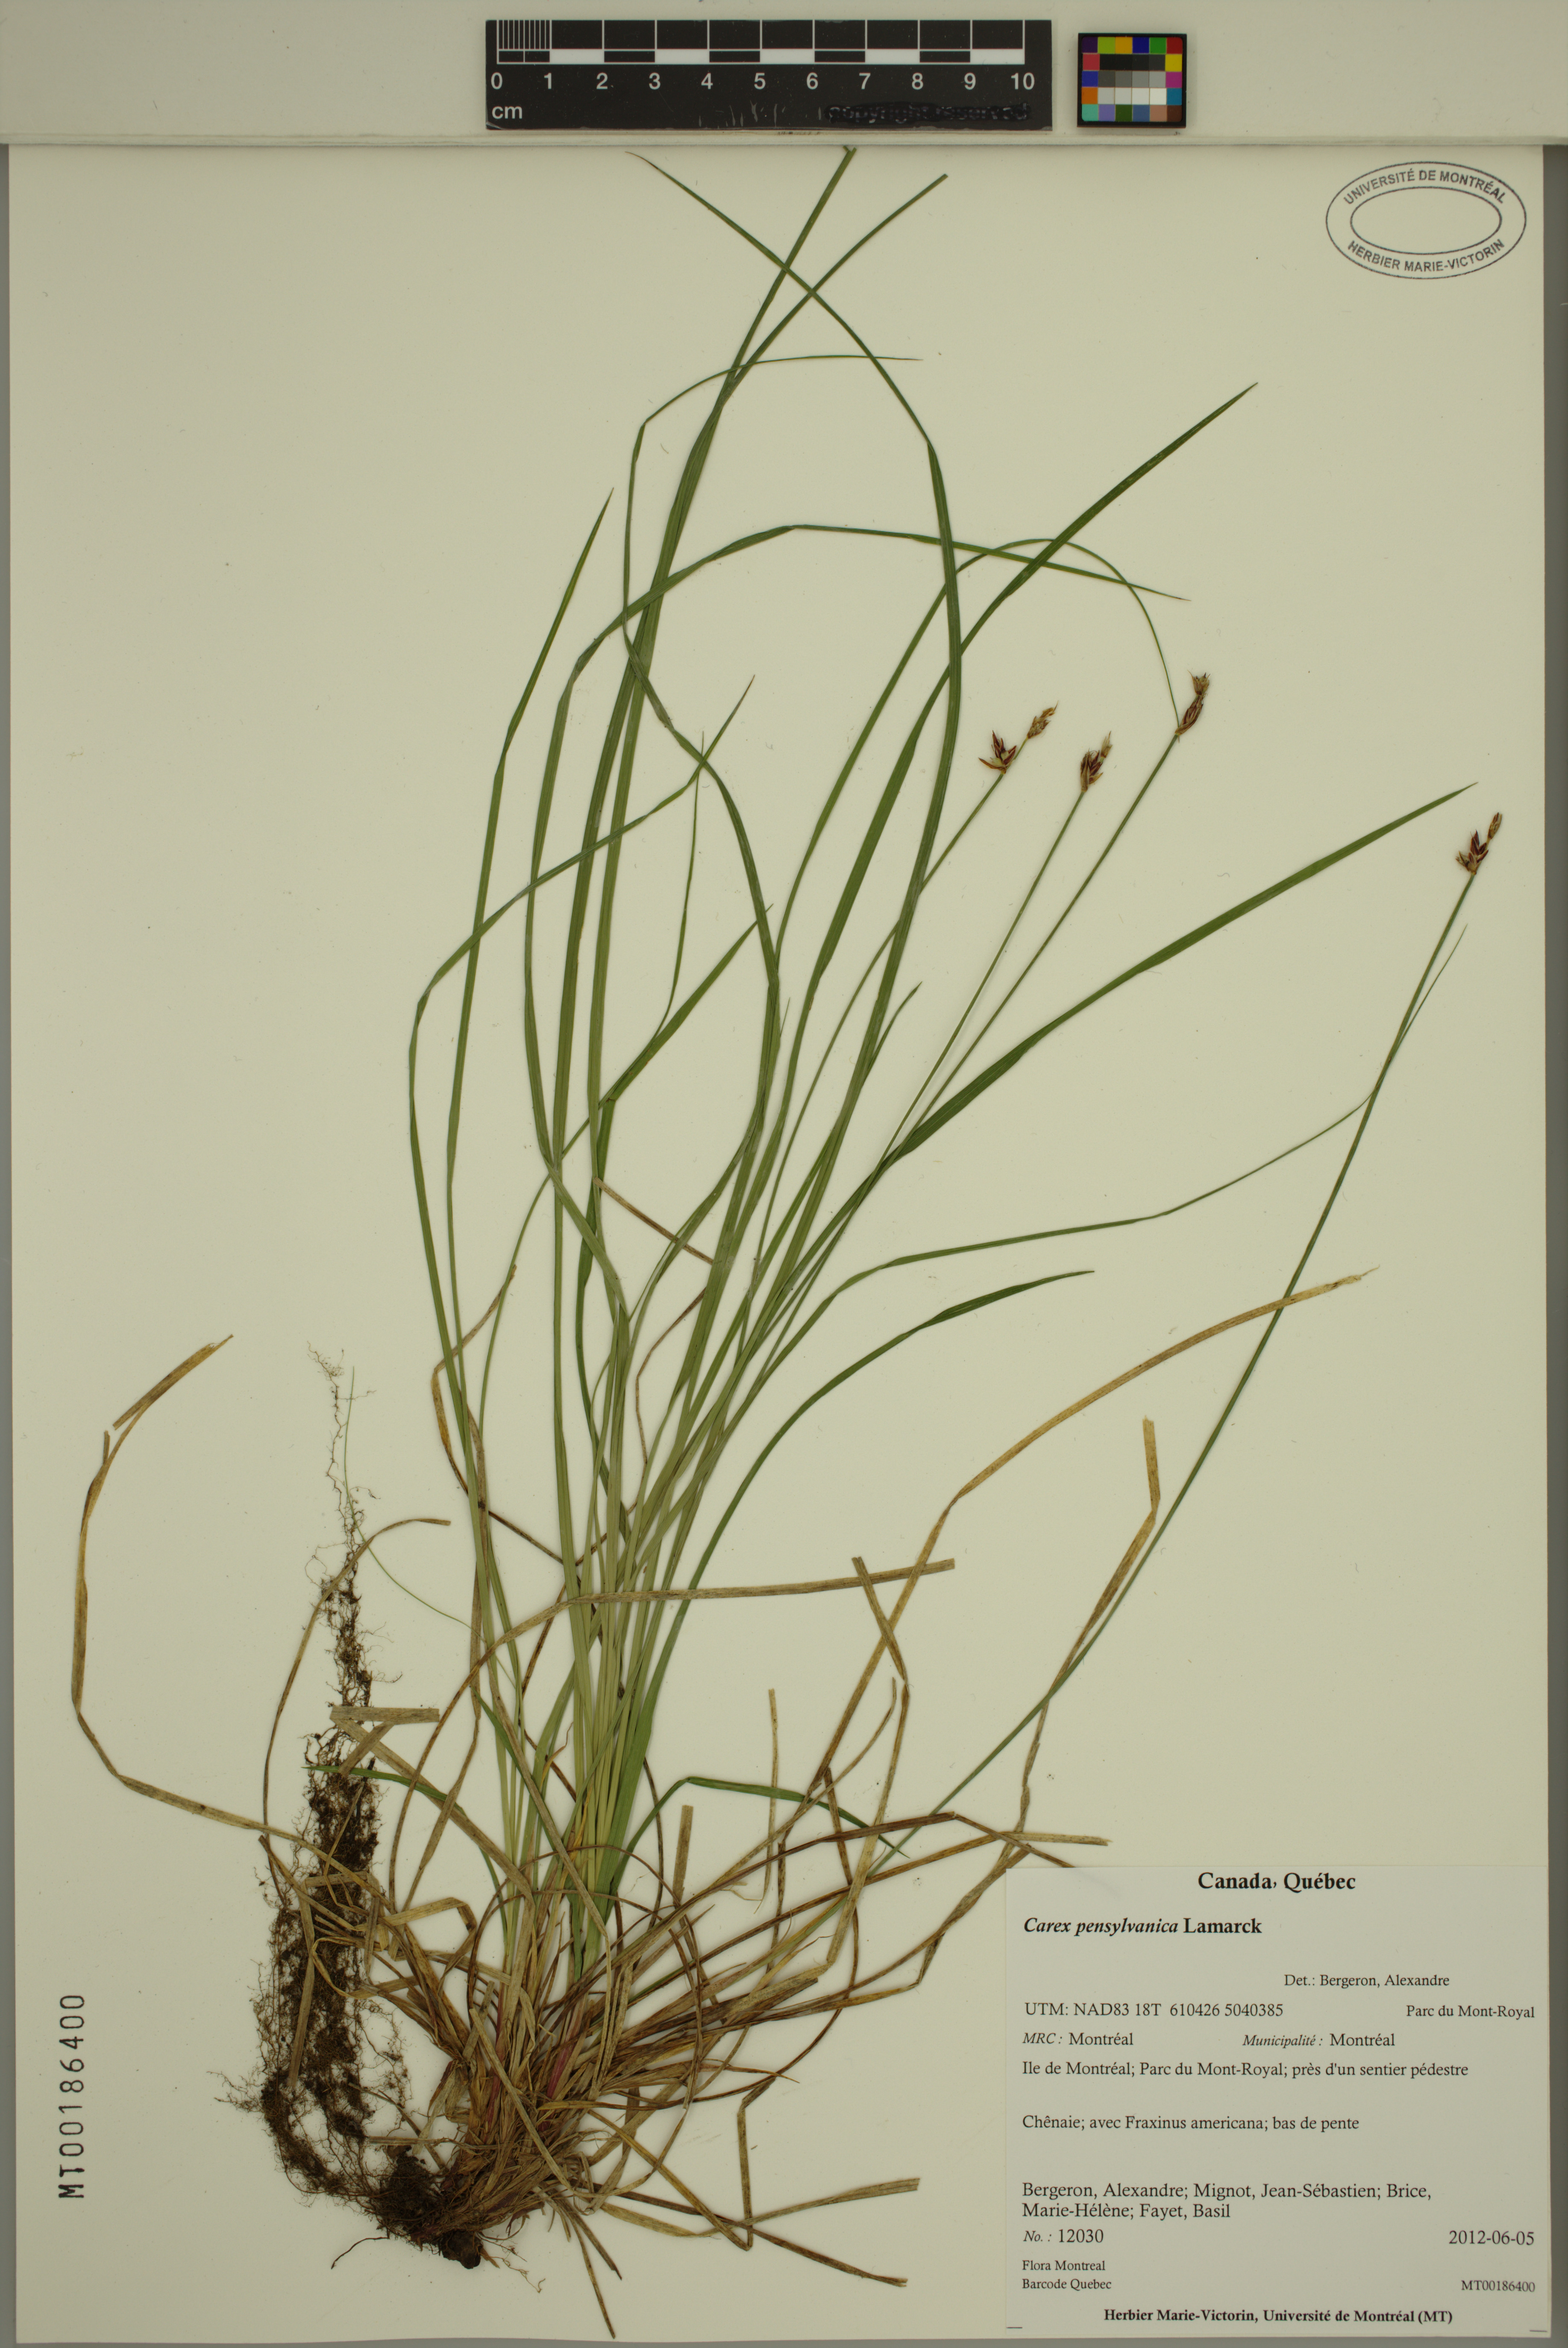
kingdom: Plantae
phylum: Tracheophyta
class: Liliopsida
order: Poales
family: Cyperaceae
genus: Carex
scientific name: Carex pensylvanica
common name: Common oak sedge
